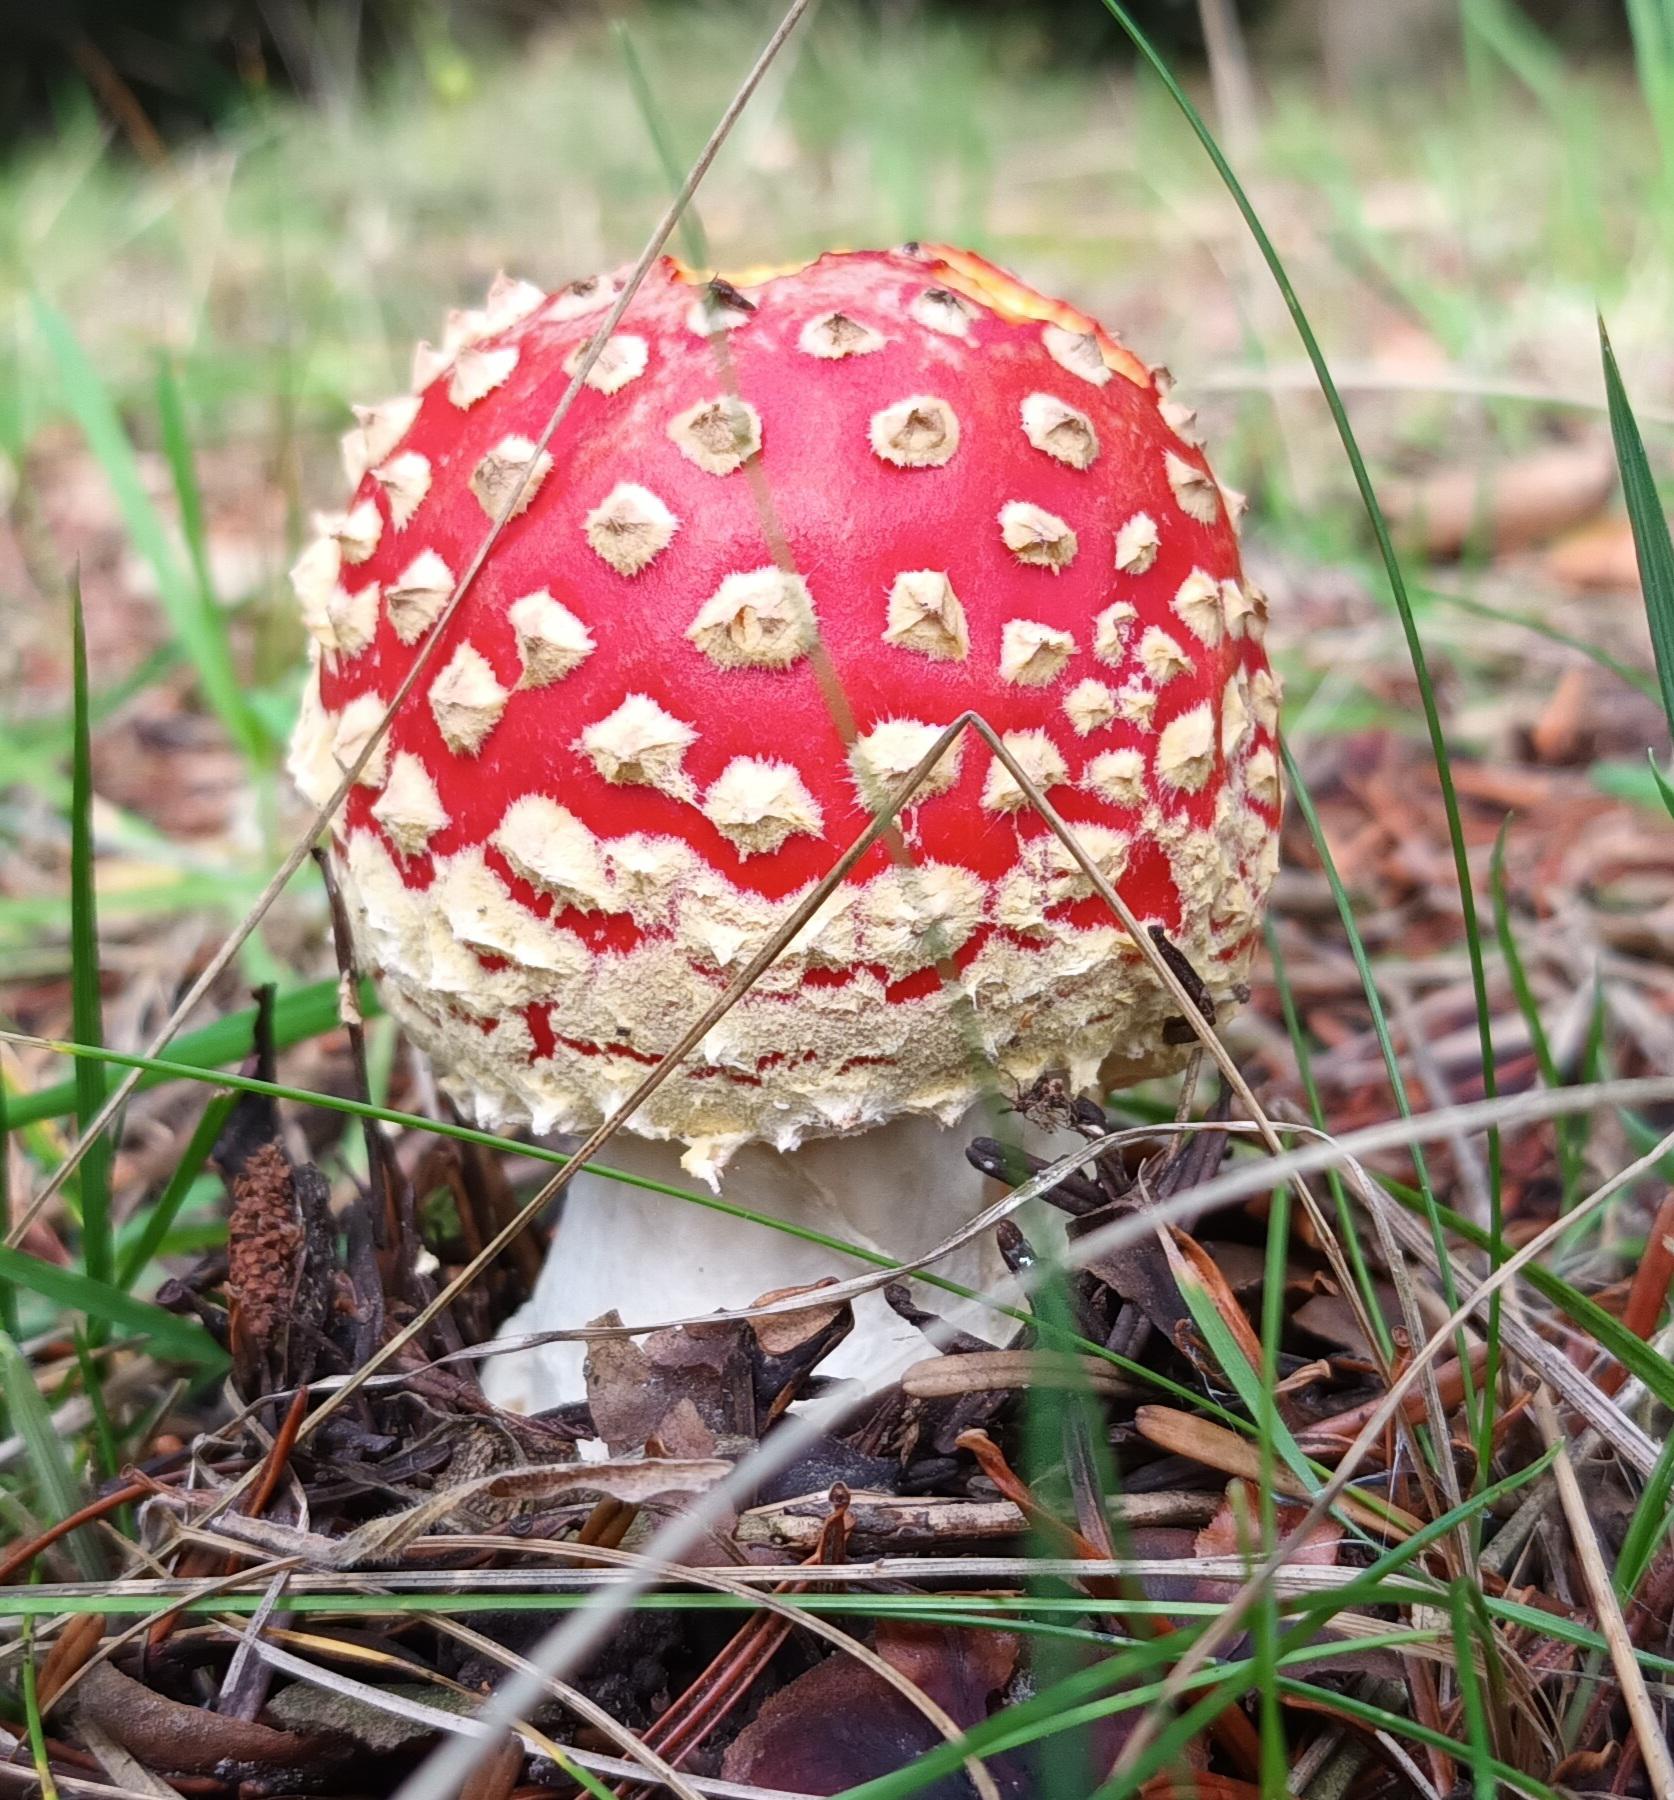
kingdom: Fungi
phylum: Basidiomycota
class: Agaricomycetes
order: Agaricales
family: Amanitaceae
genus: Amanita
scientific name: Amanita muscaria
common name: Rød fluesvamp
